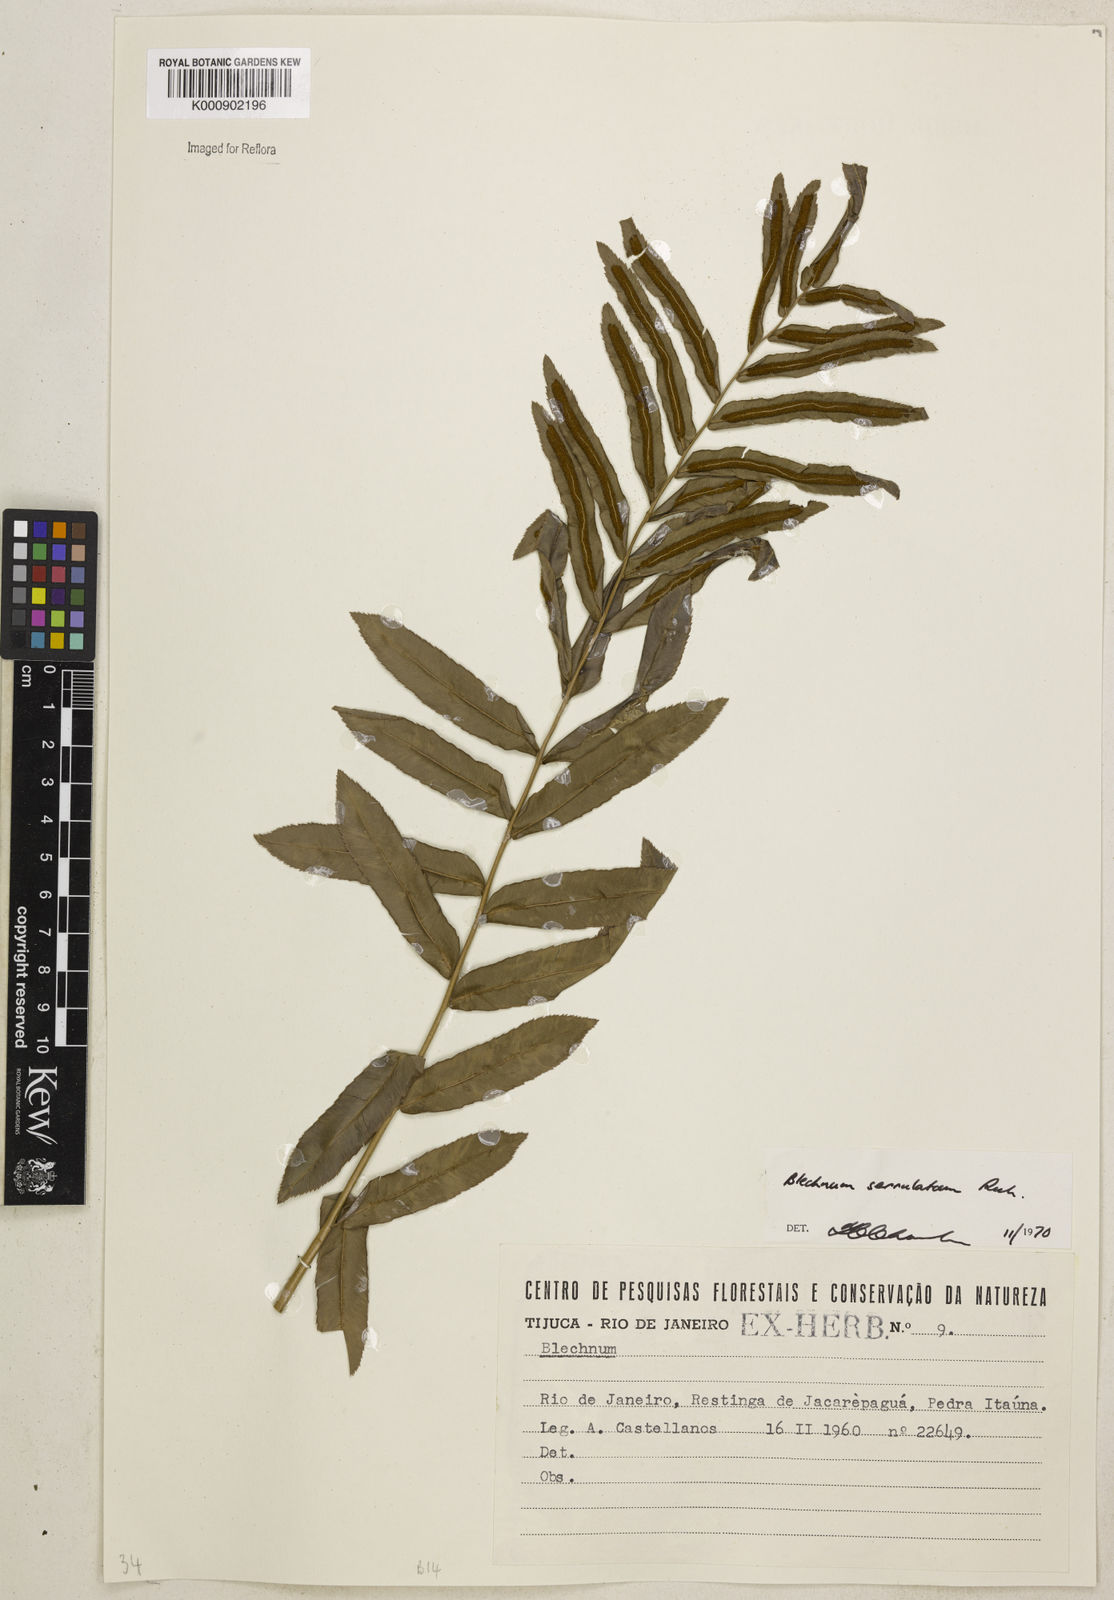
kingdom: Plantae
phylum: Tracheophyta
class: Polypodiopsida
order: Polypodiales
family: Blechnaceae
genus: Telmatoblechnum
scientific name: Telmatoblechnum serrulatum
